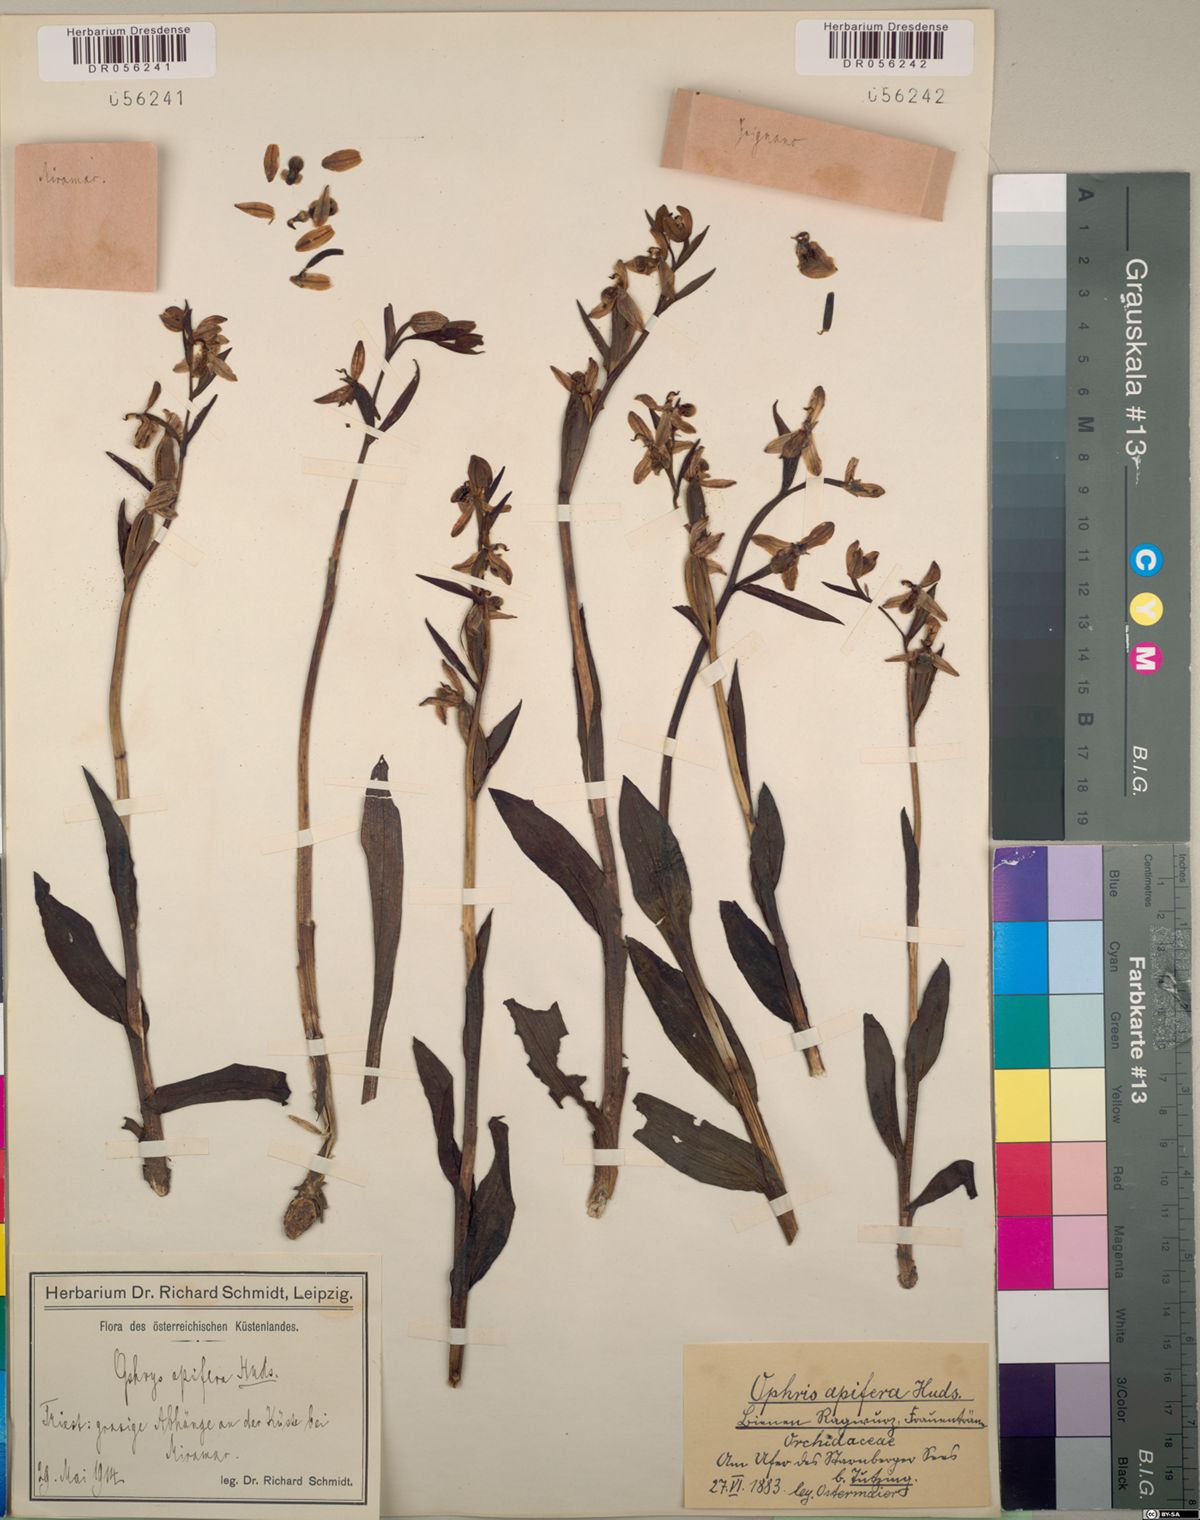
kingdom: Plantae
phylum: Tracheophyta
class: Liliopsida
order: Asparagales
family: Orchidaceae
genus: Ophrys
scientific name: Ophrys apifera
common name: Bee orchid
